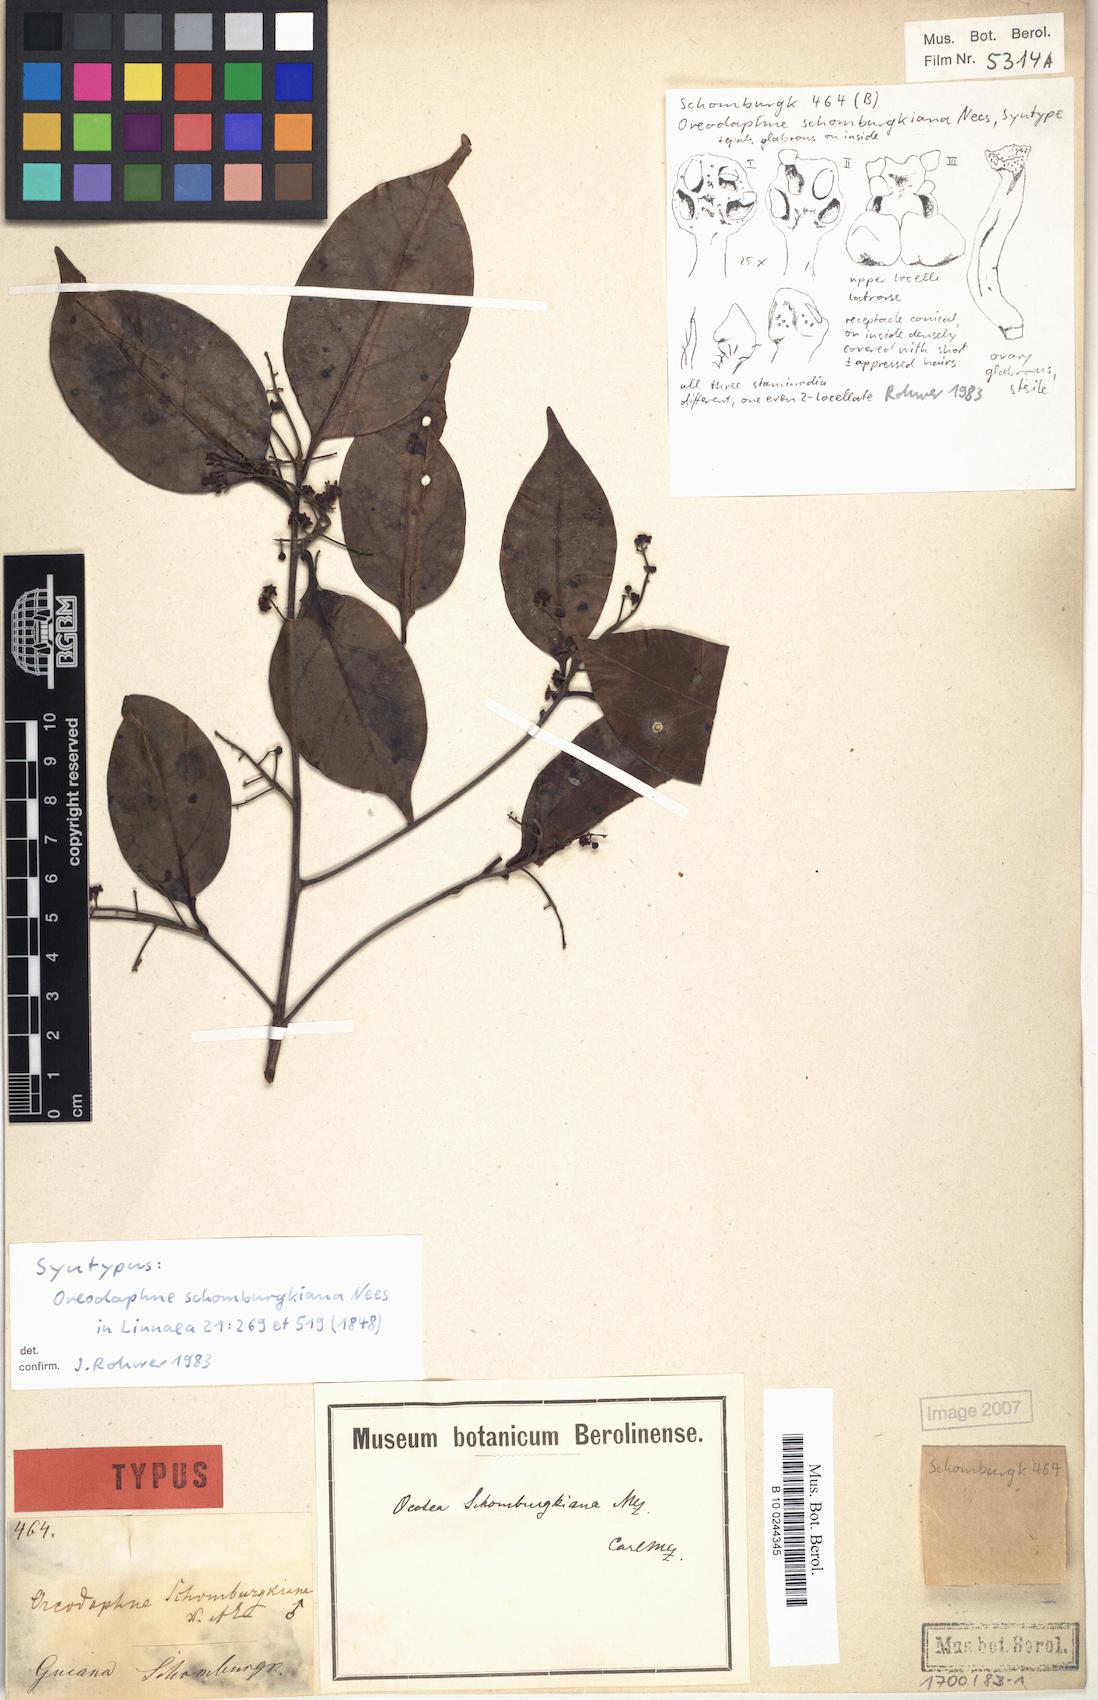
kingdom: Plantae
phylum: Tracheophyta
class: Magnoliopsida
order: Laurales
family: Lauraceae
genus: Ocotea
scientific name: Ocotea schomburgkiana
